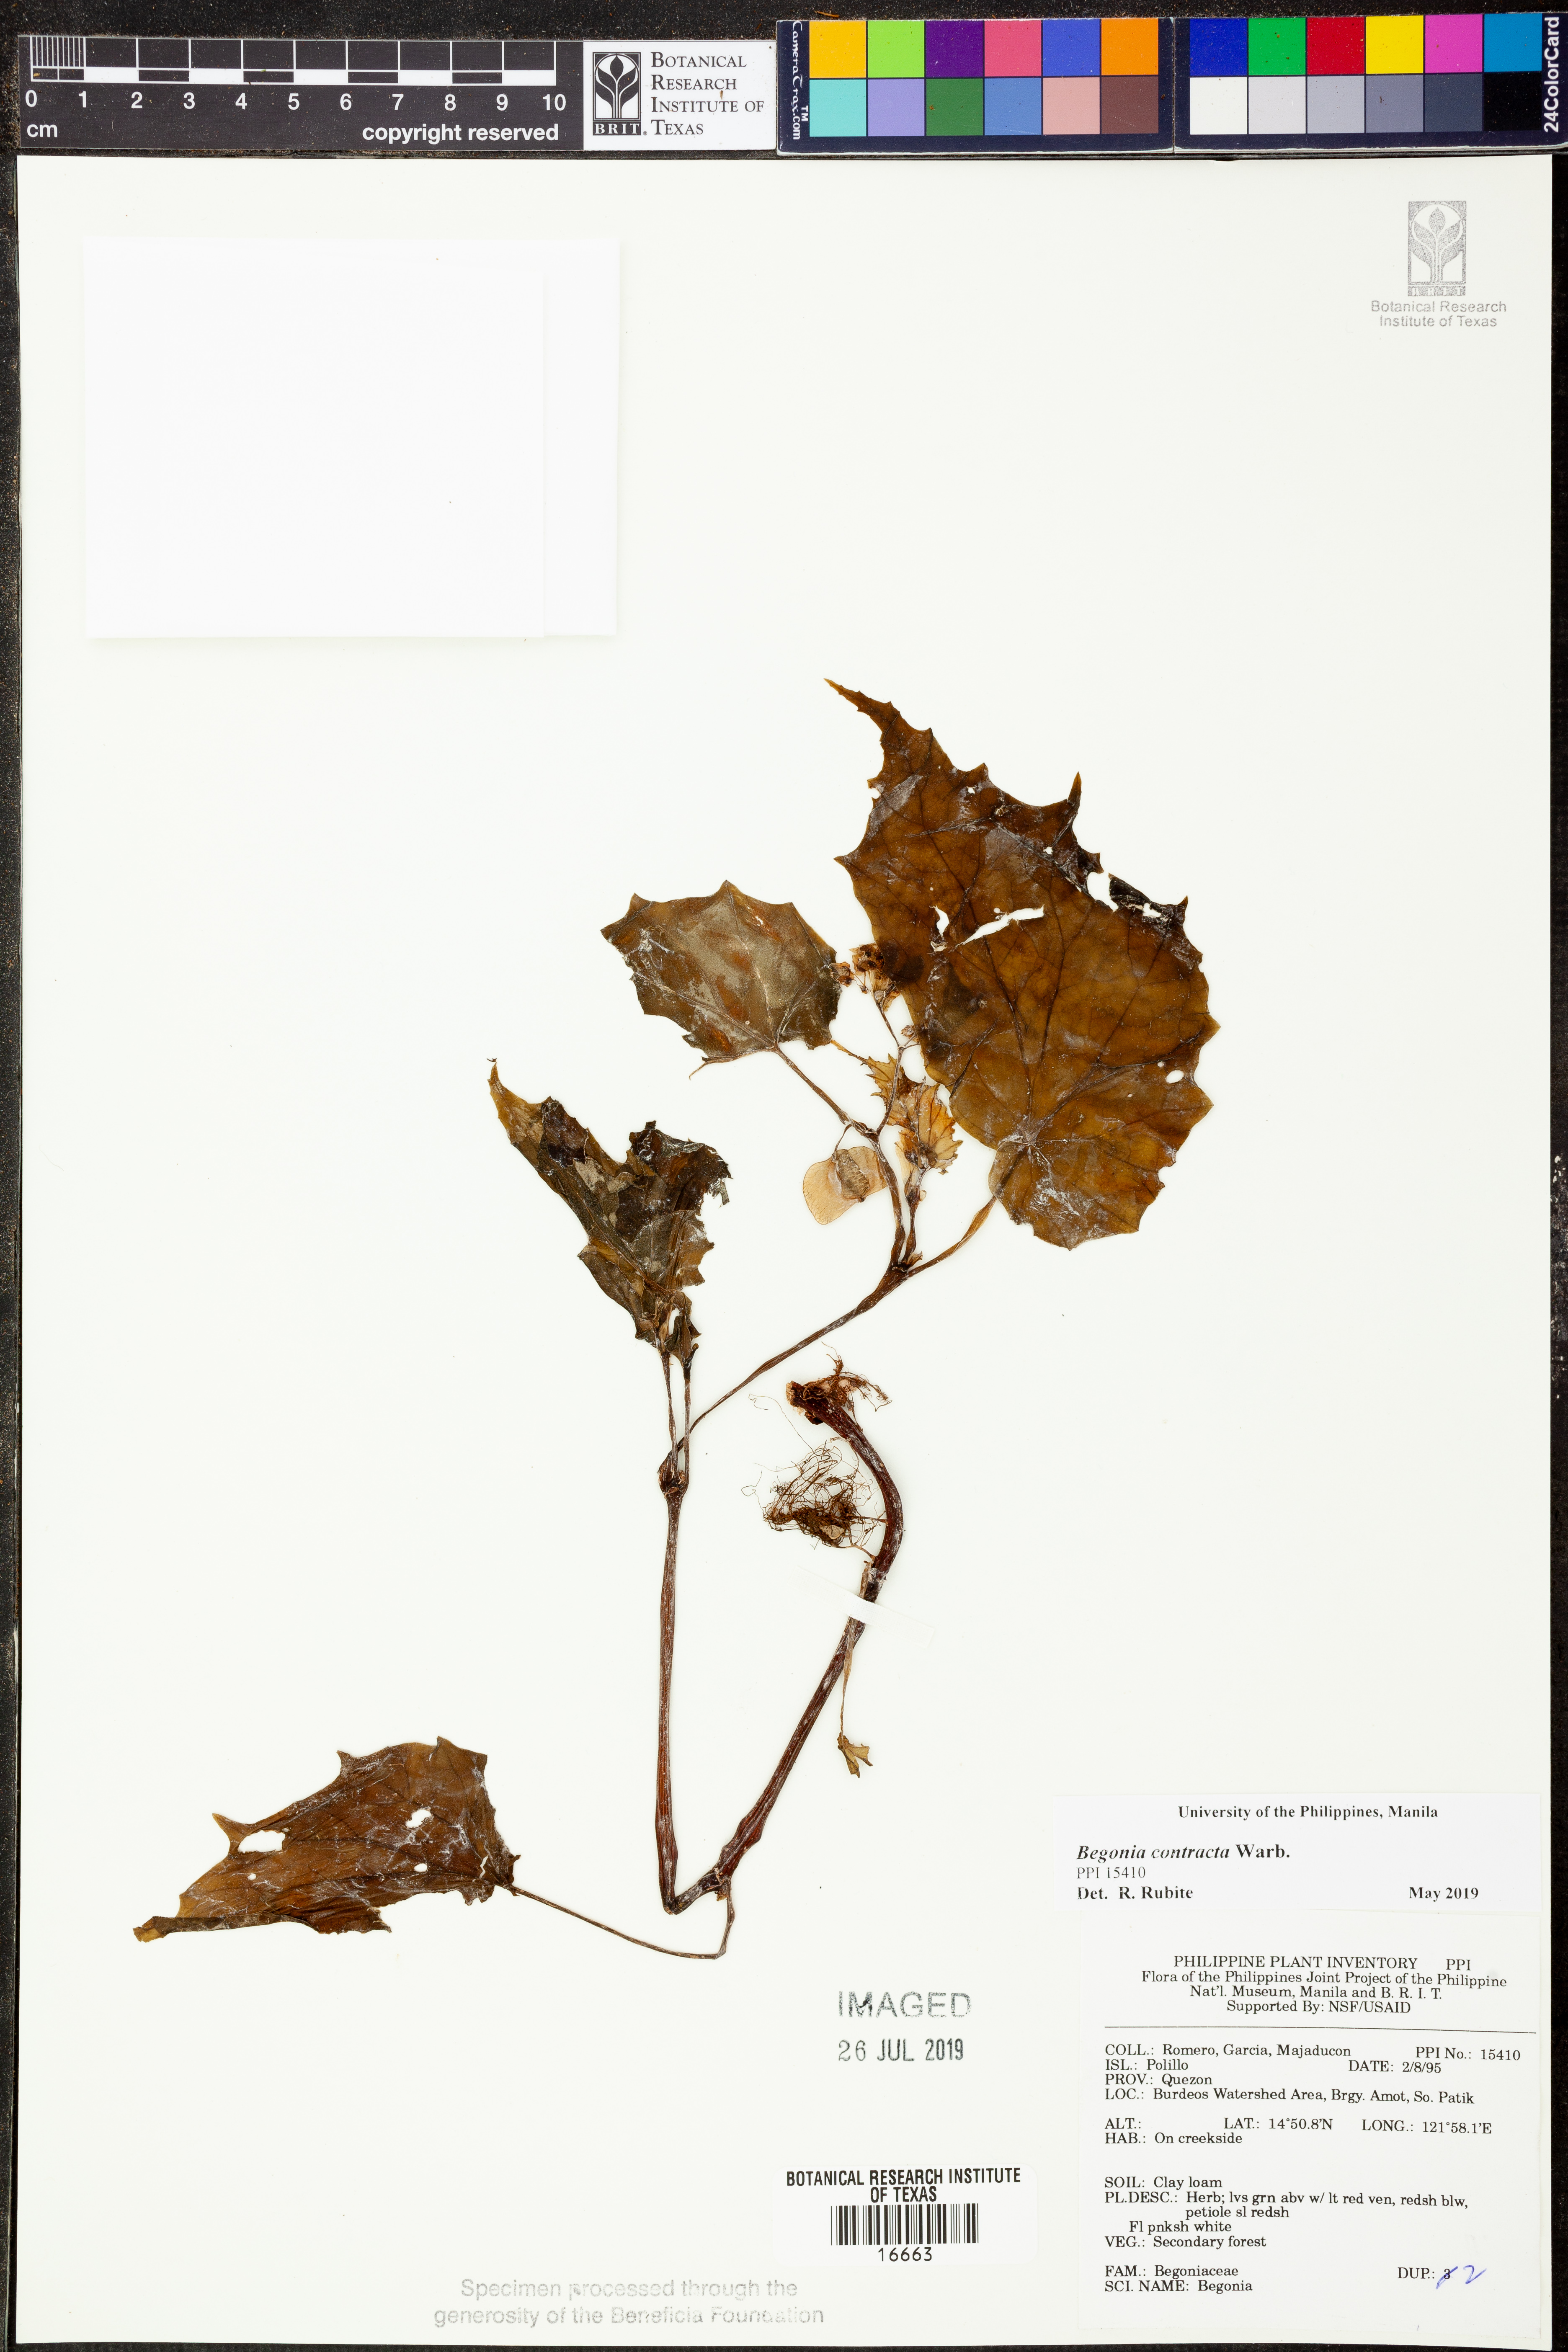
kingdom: Plantae
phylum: Tracheophyta
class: Magnoliopsida
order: Cucurbitales
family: Begoniaceae
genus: Begonia
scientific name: Begonia contracta
